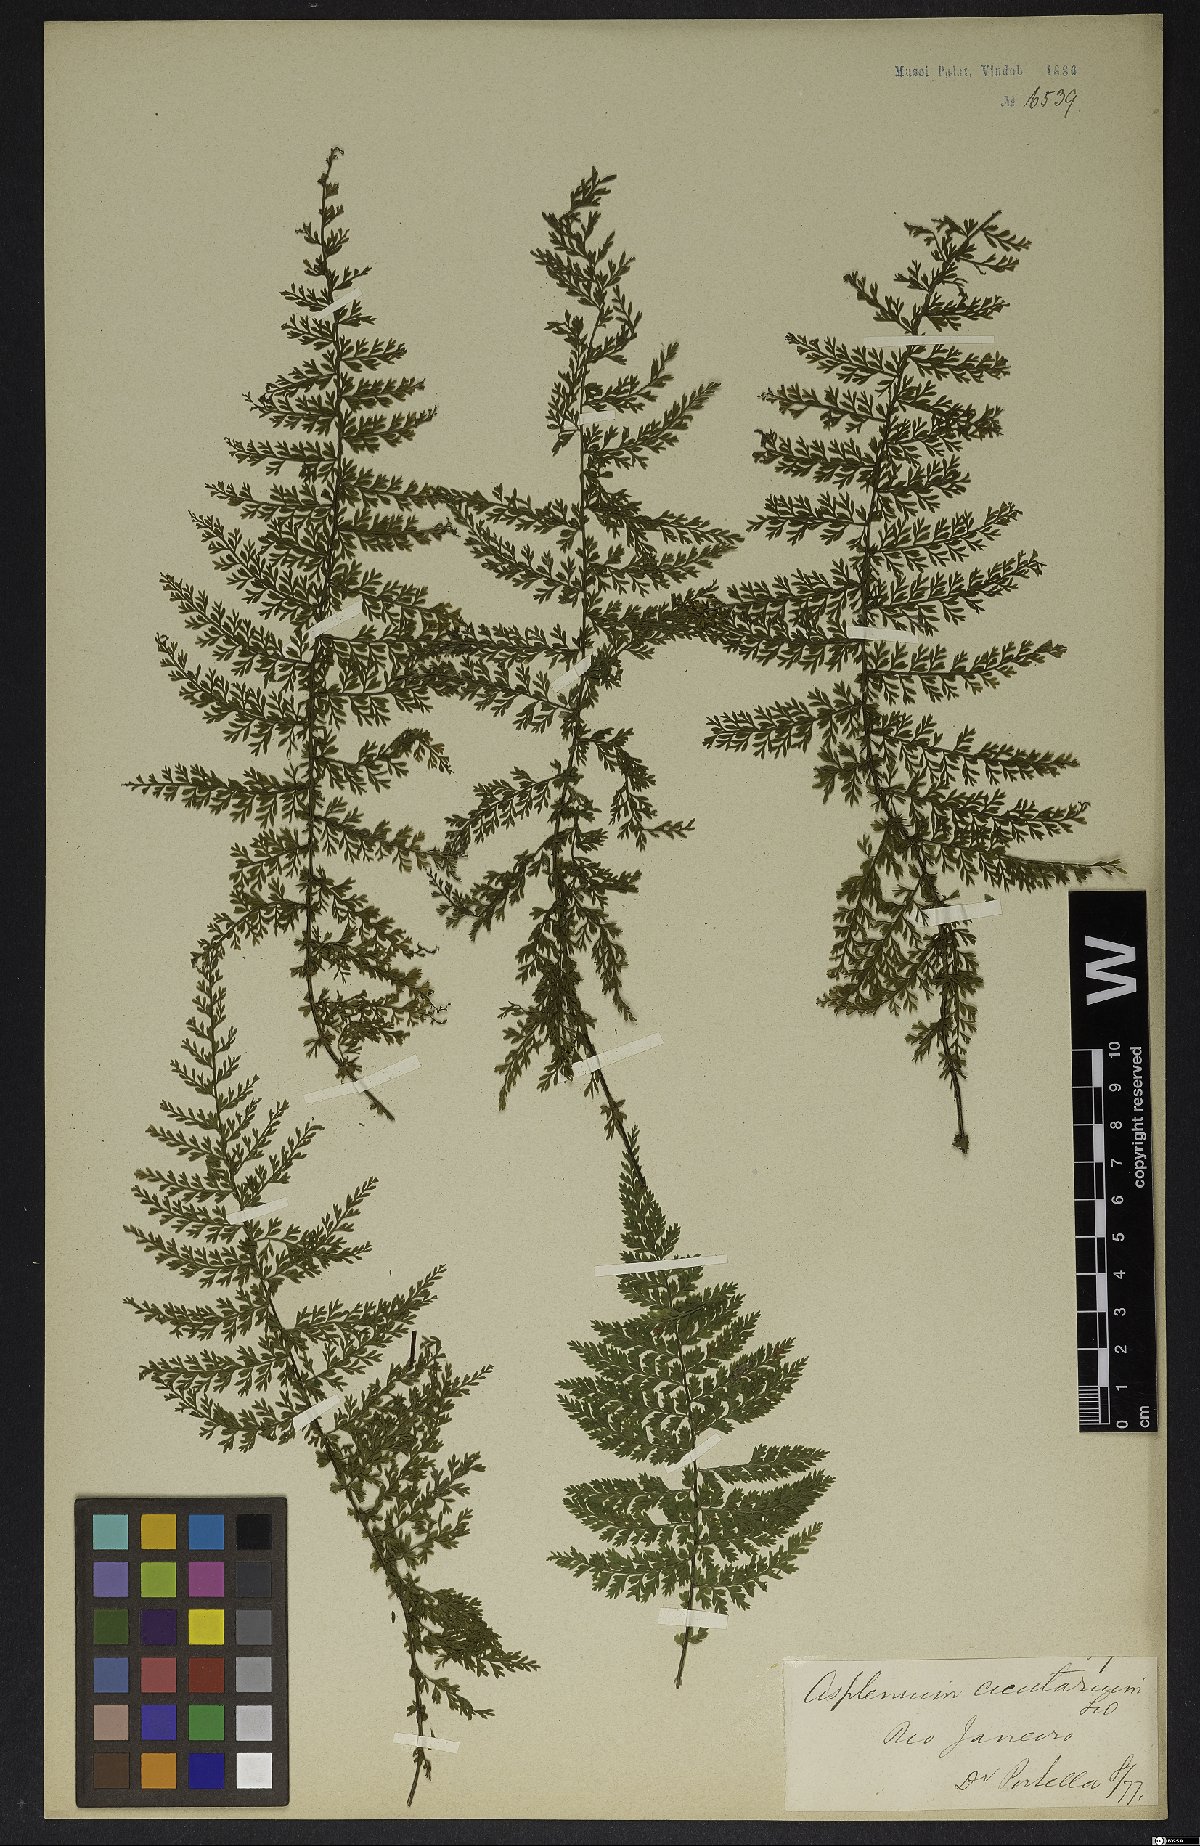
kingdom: Plantae
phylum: Tracheophyta
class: Polypodiopsida
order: Polypodiales
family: Aspleniaceae
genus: Asplenium
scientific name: Asplenium cristatum
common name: Parsley spleenwort
